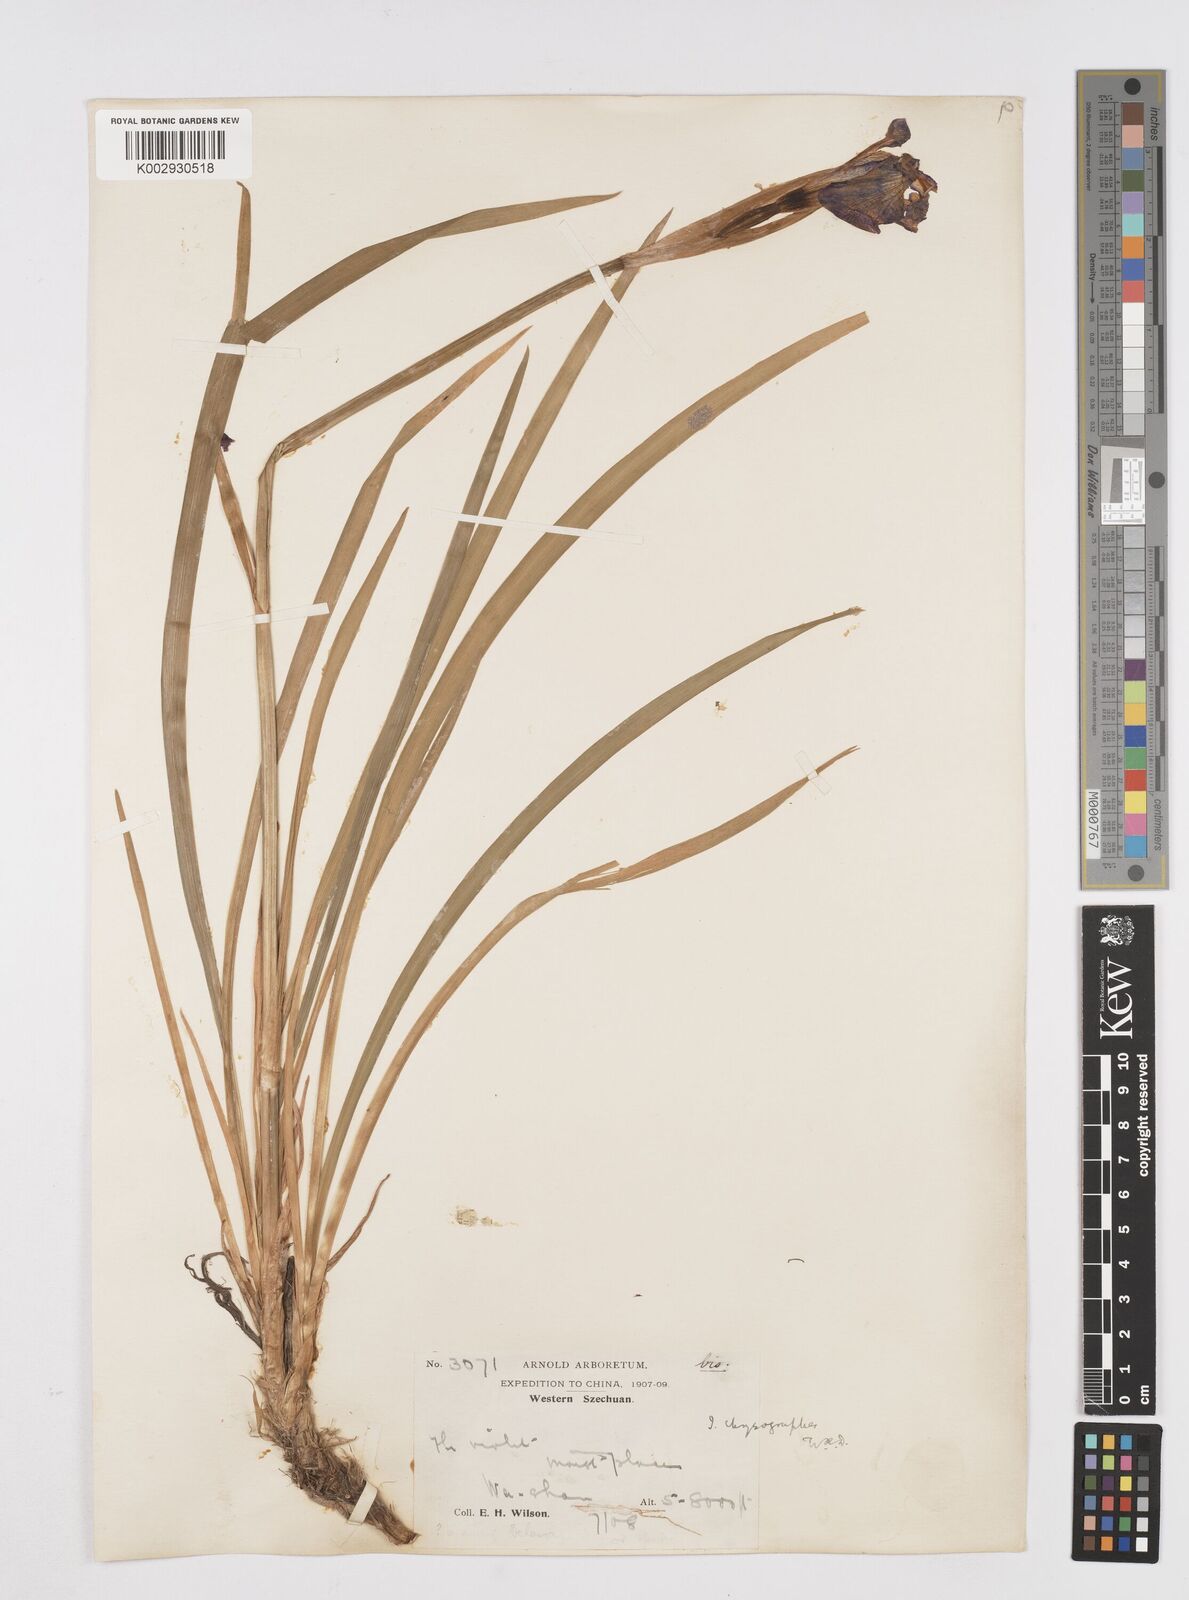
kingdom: Plantae
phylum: Tracheophyta
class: Liliopsida
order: Asparagales
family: Iridaceae
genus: Iris
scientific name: Iris chrysographes
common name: Gold-vein iris
